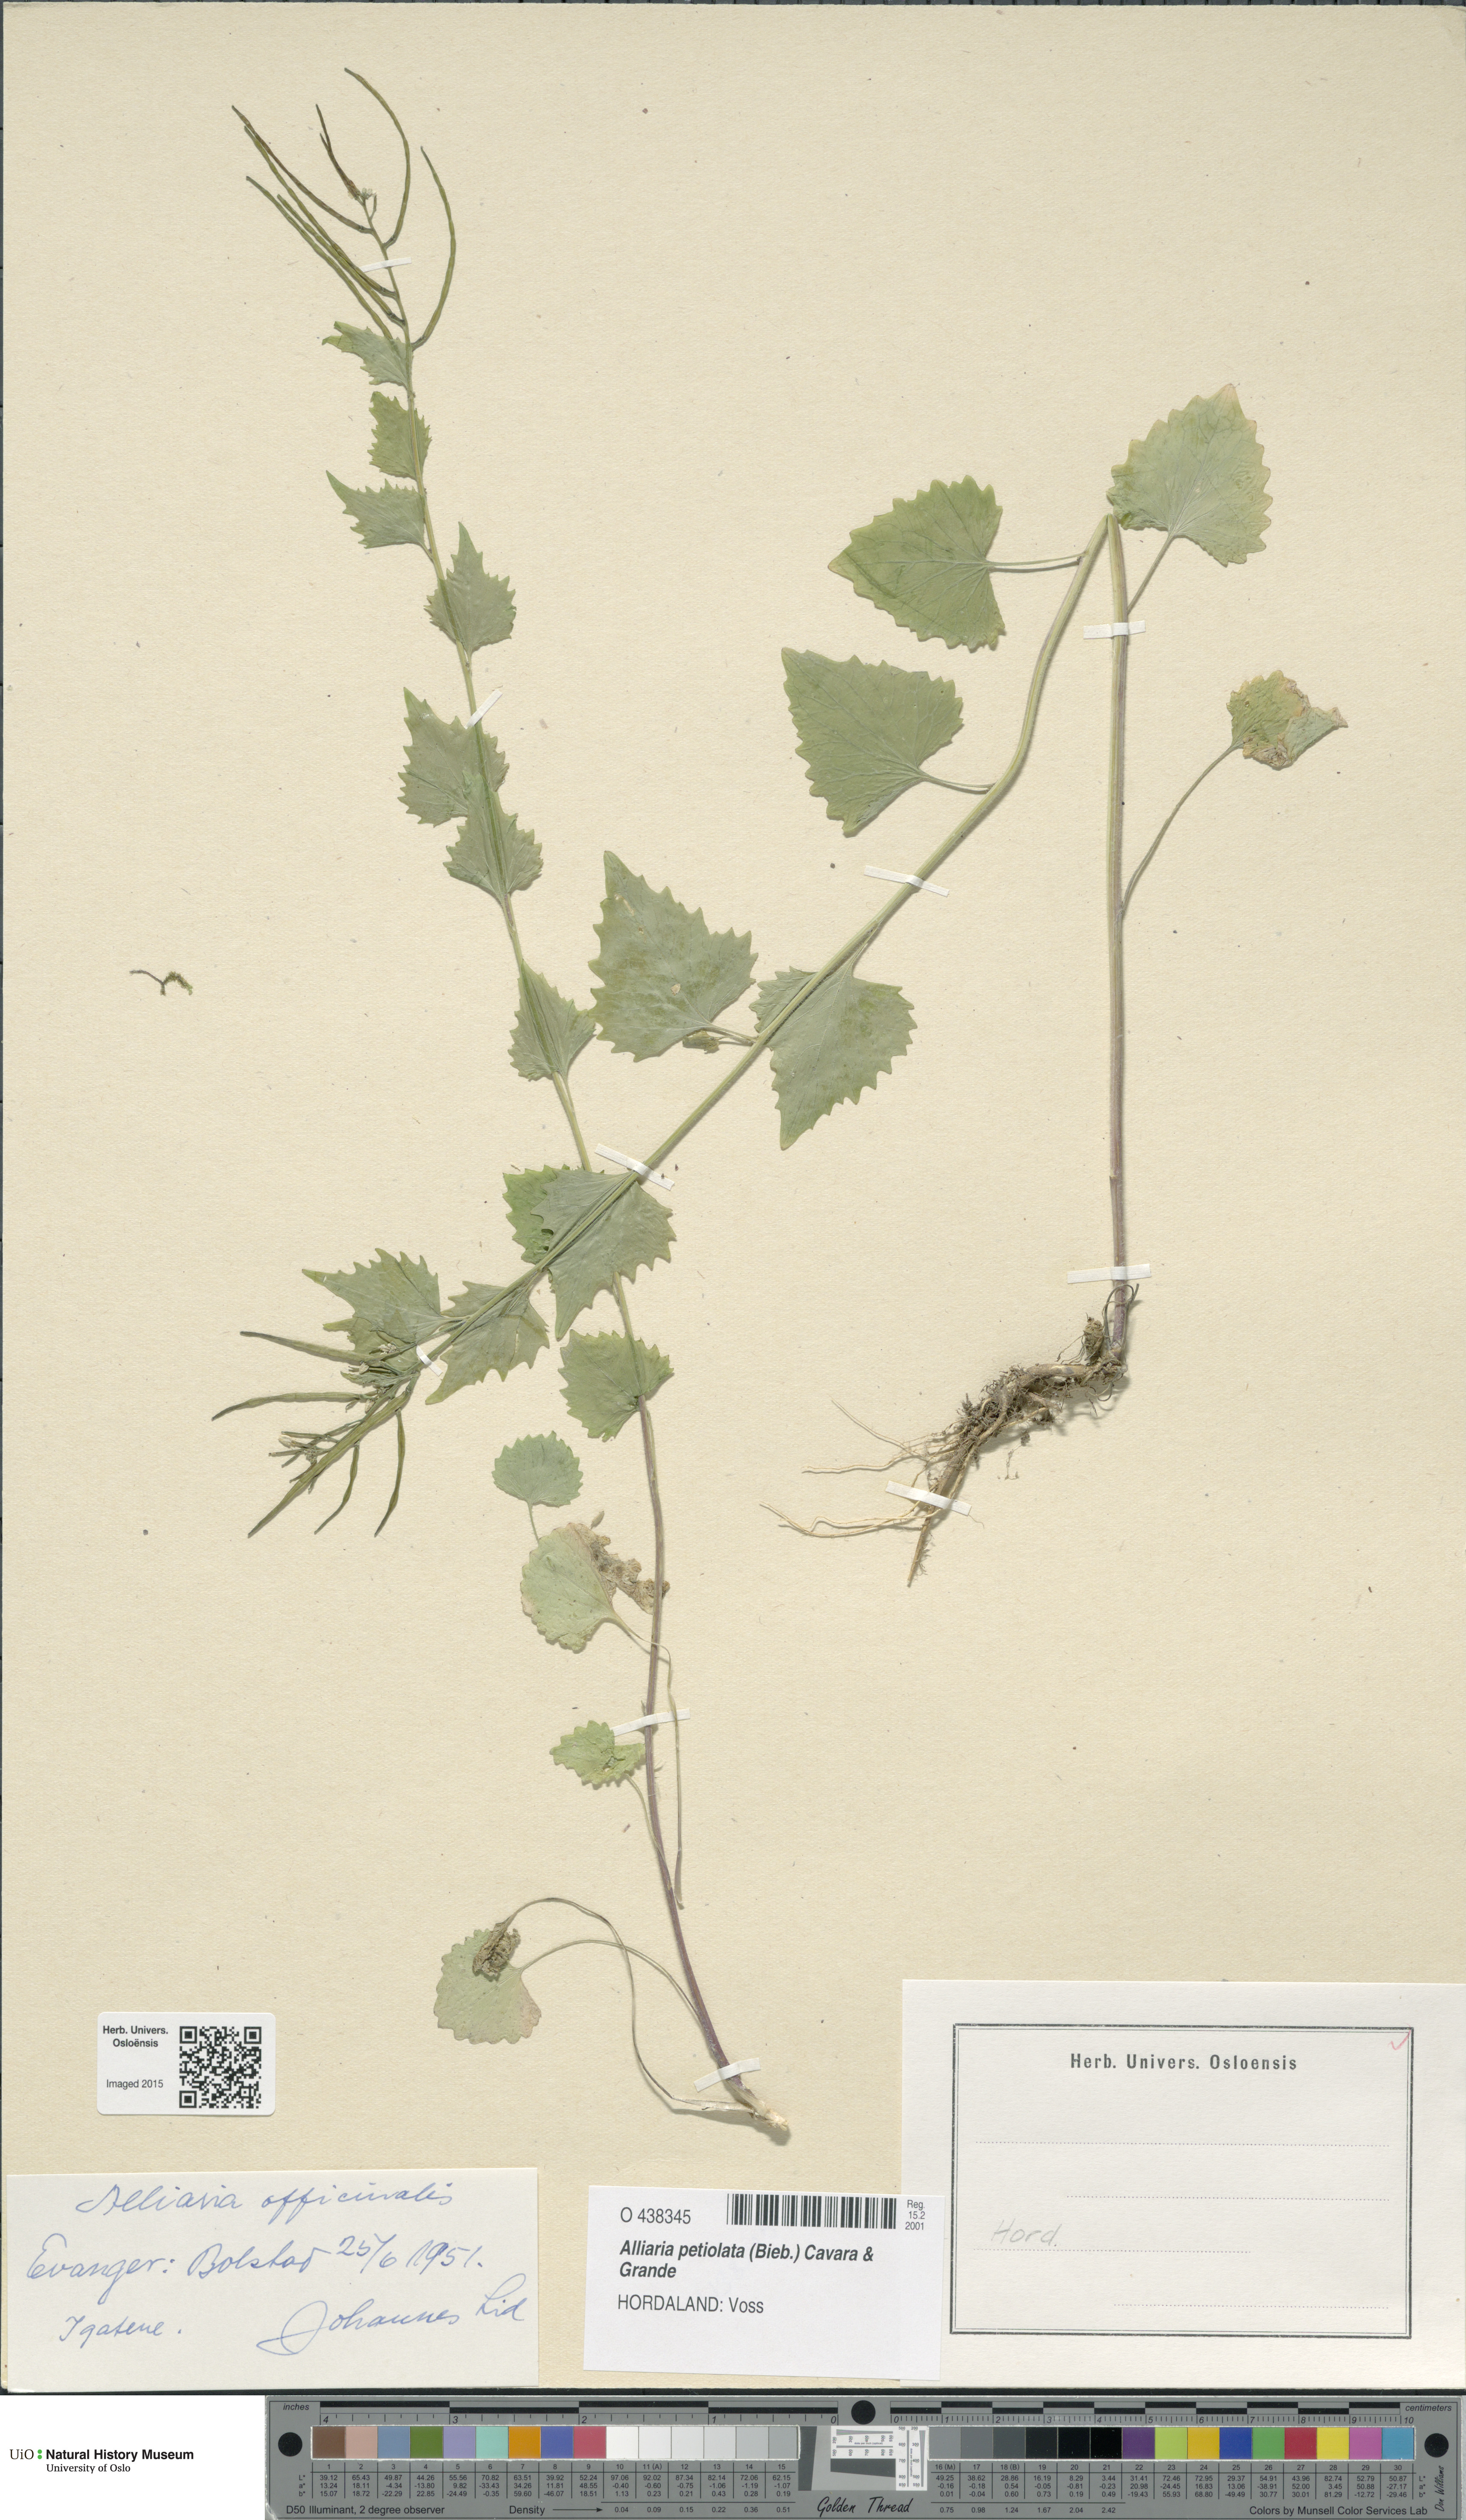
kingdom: Plantae
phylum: Tracheophyta
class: Magnoliopsida
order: Brassicales
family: Brassicaceae
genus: Alliaria
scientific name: Alliaria petiolata
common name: Garlic mustard
